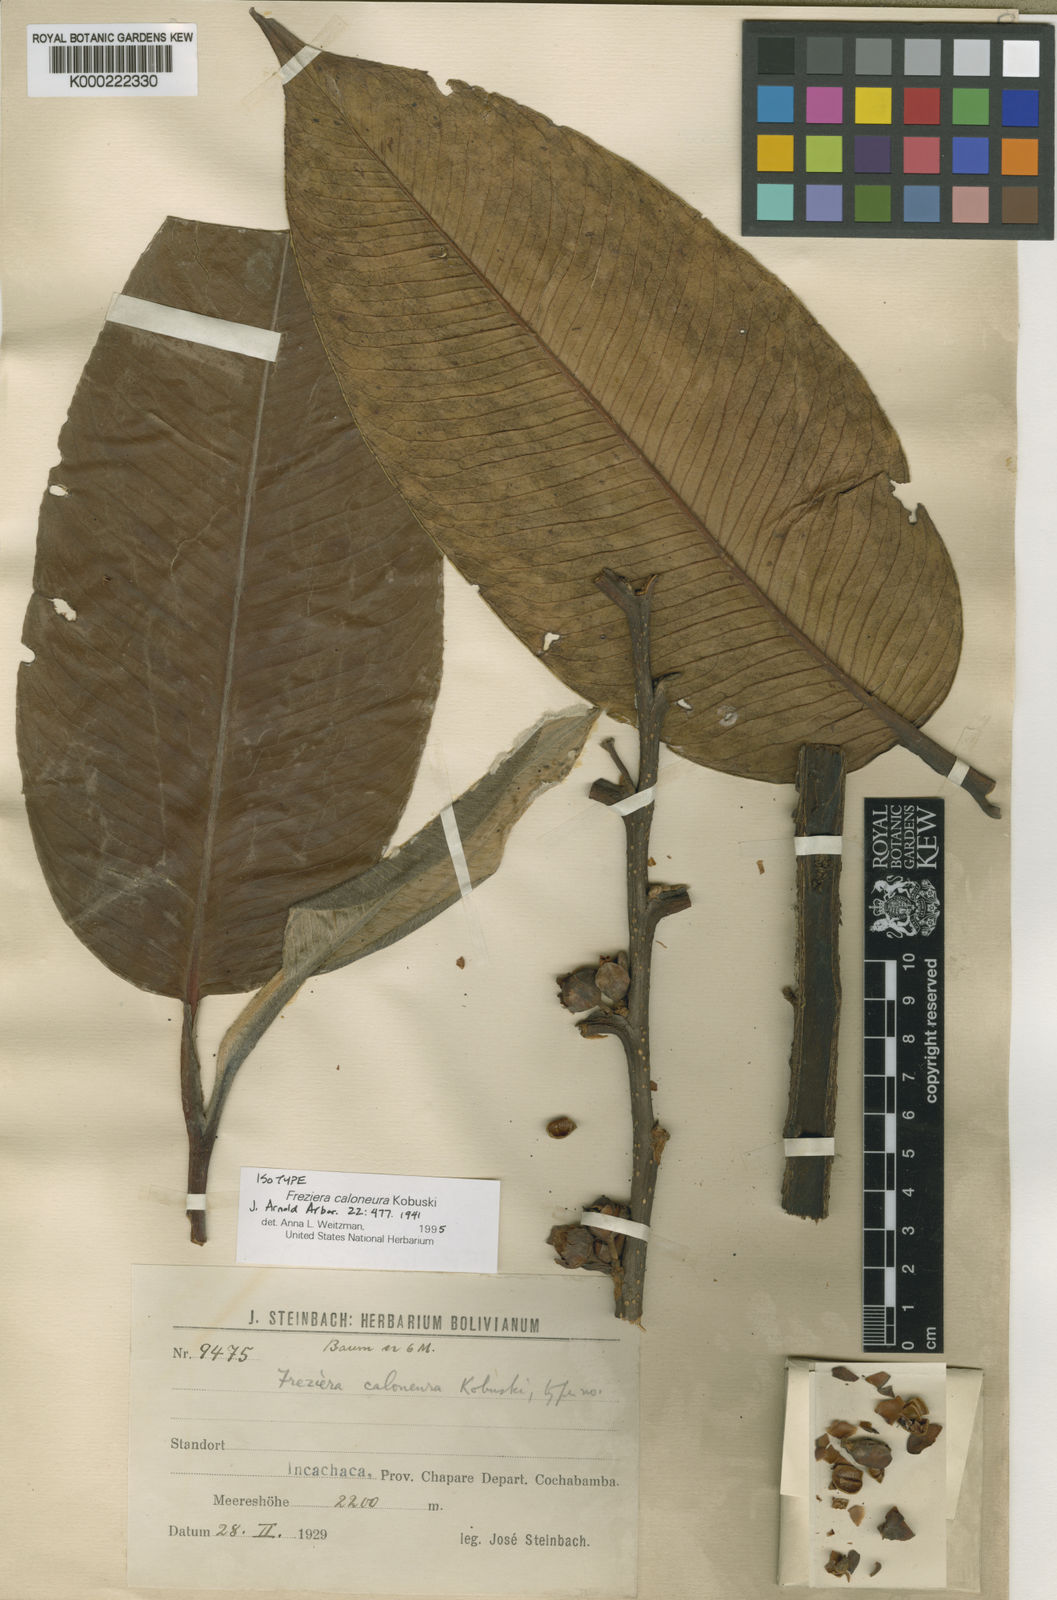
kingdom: Plantae
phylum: Tracheophyta
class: Magnoliopsida
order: Ericales
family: Pentaphylacaceae
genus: Freziera
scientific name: Freziera caloneura
